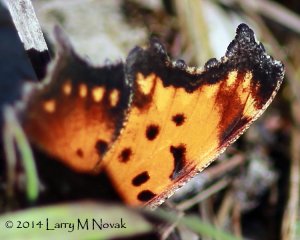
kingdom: Animalia
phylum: Arthropoda
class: Insecta
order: Lepidoptera
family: Nymphalidae
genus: Polygonia
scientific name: Polygonia progne
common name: Gray Comma
